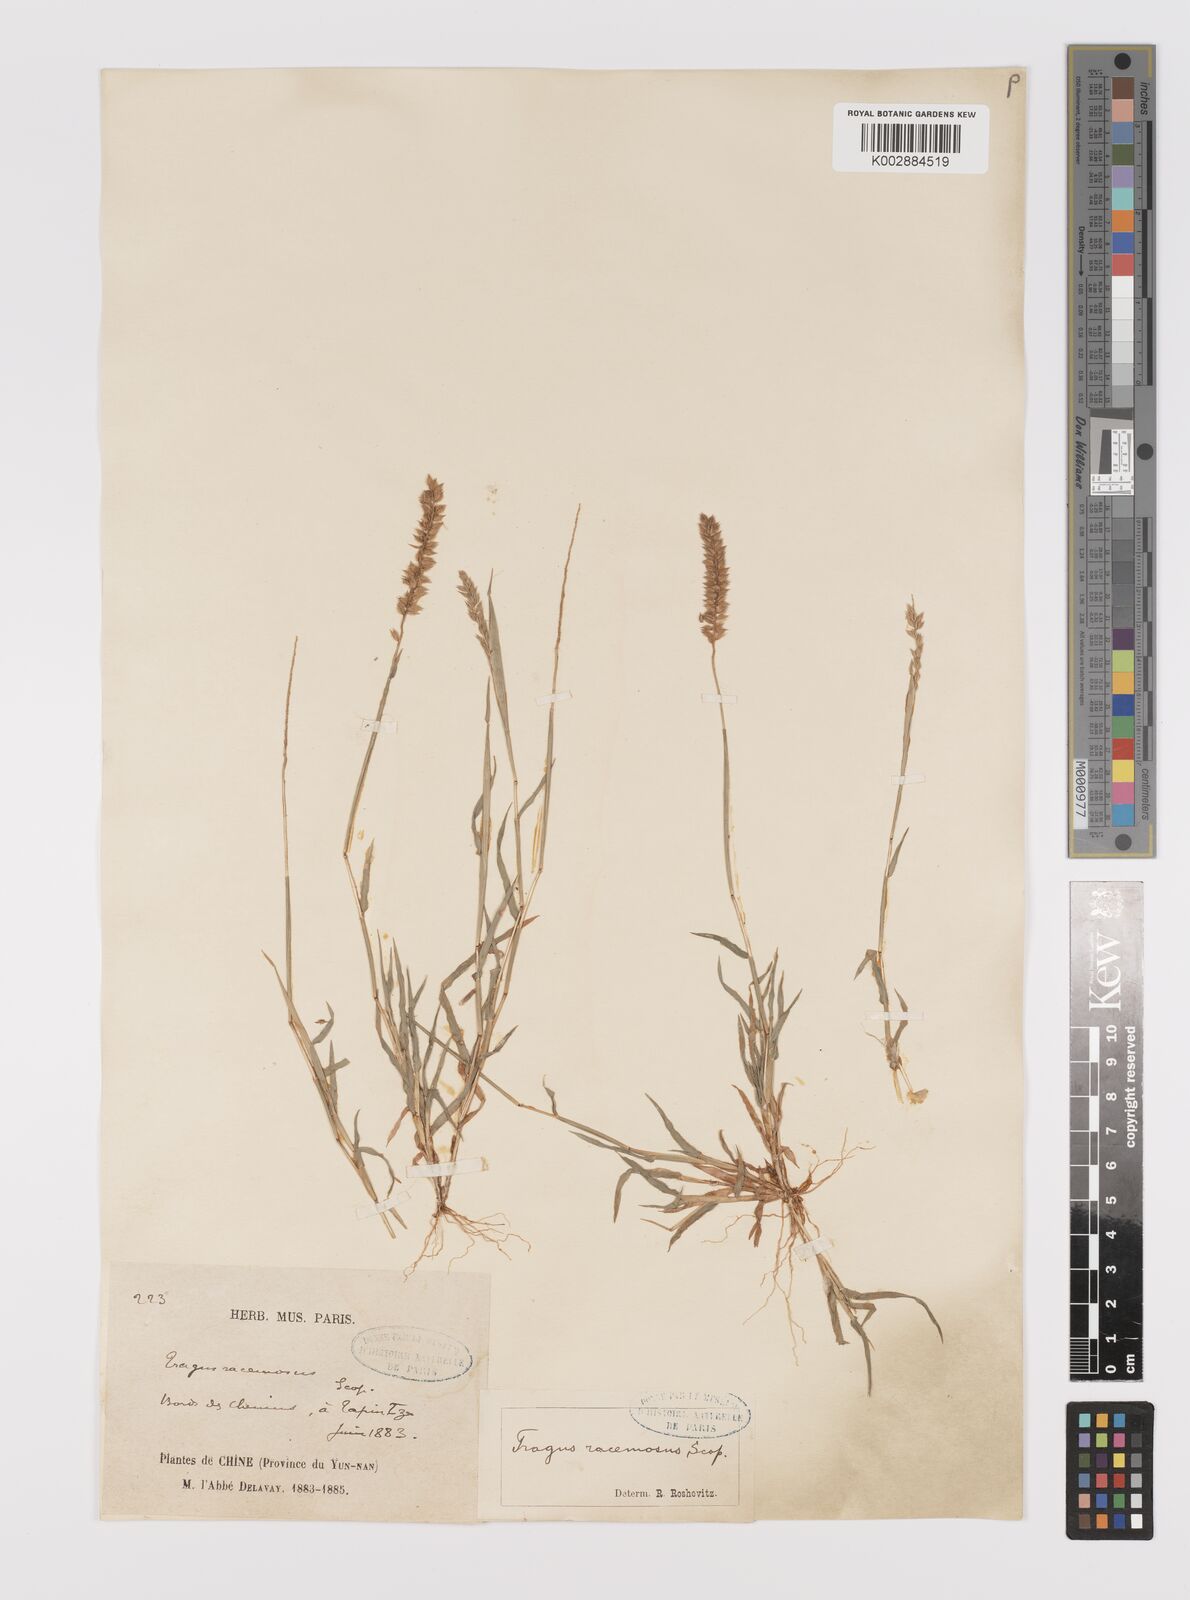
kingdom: Plantae
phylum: Tracheophyta
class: Liliopsida
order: Poales
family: Poaceae
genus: Tragus
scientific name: Tragus mongolorum
